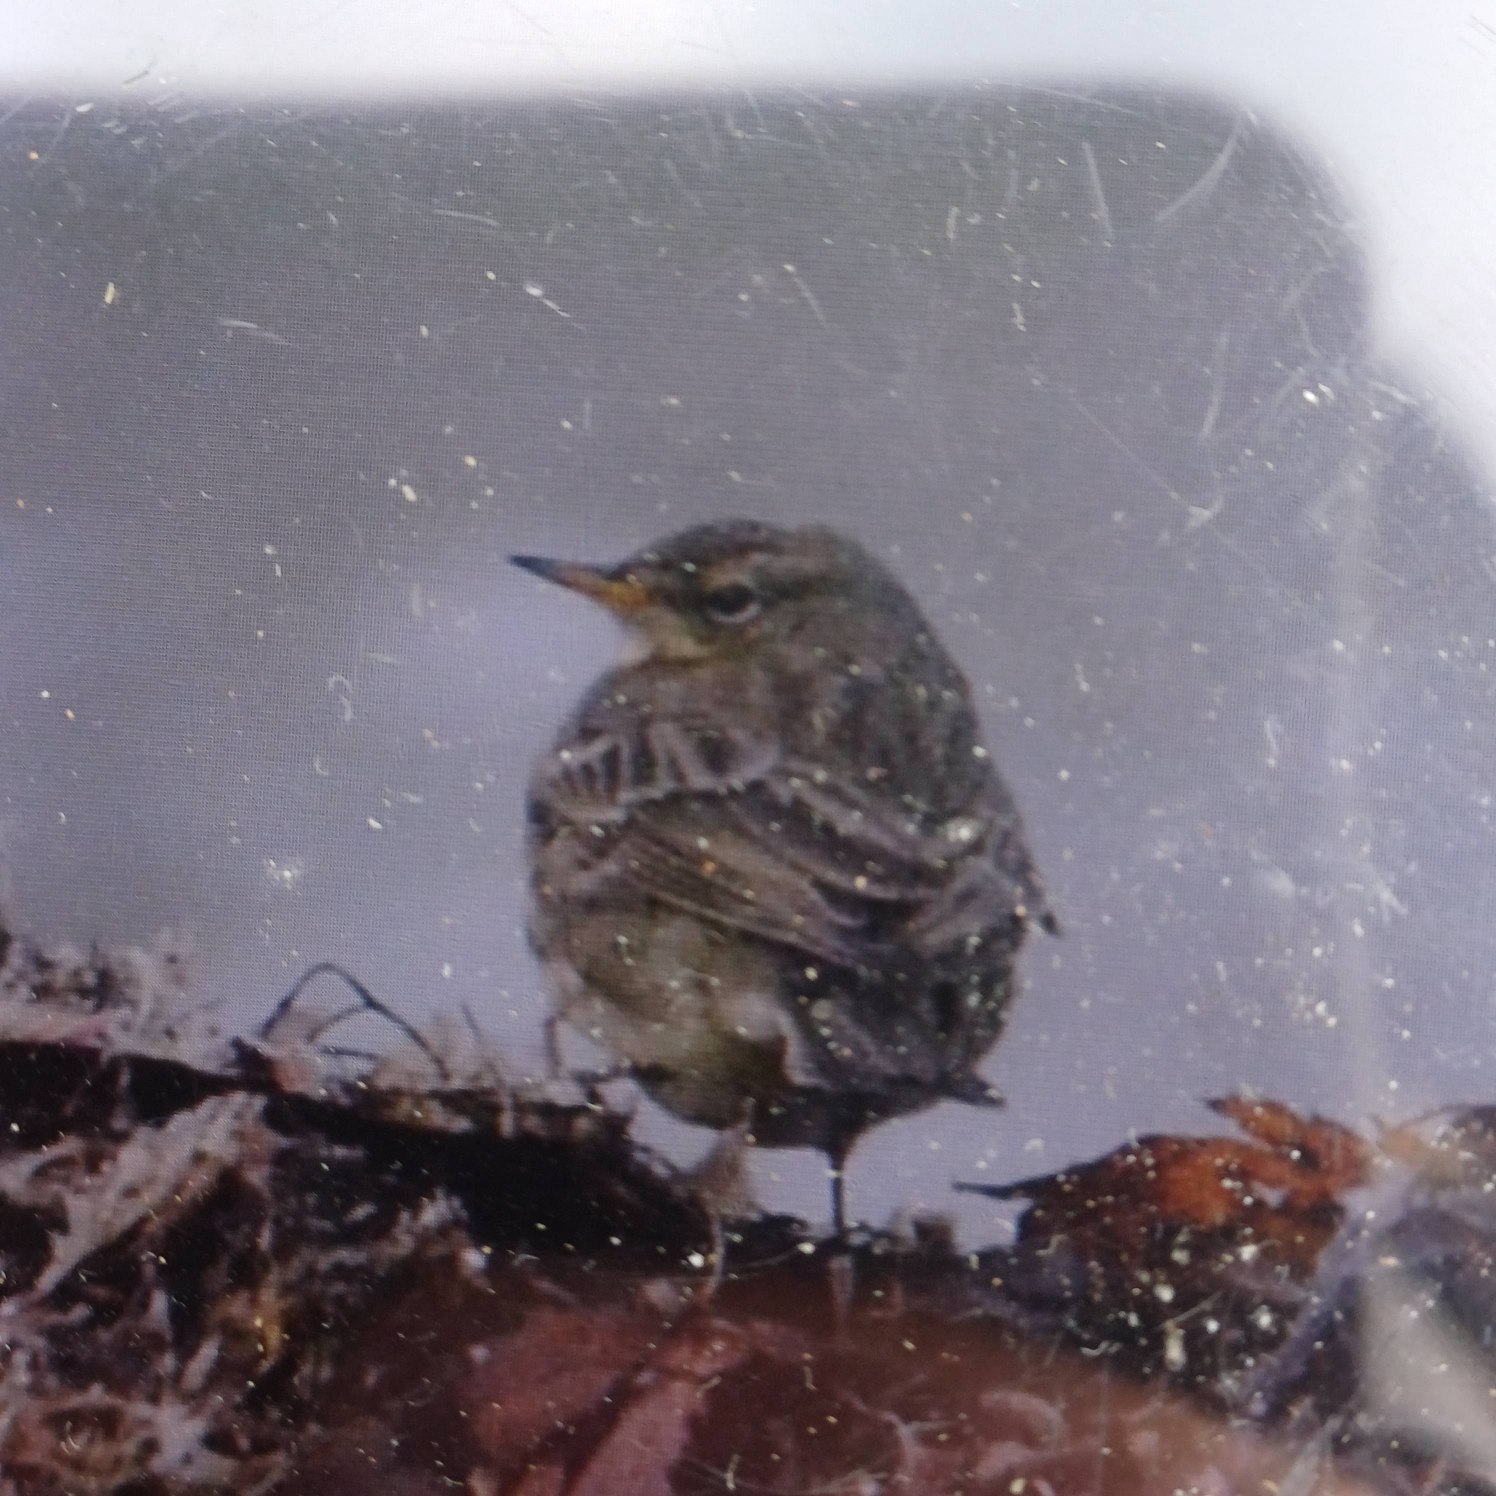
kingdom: Animalia
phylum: Chordata
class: Aves
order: Passeriformes
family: Motacillidae
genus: Anthus
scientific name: Anthus petrosus
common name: Skærpiber
